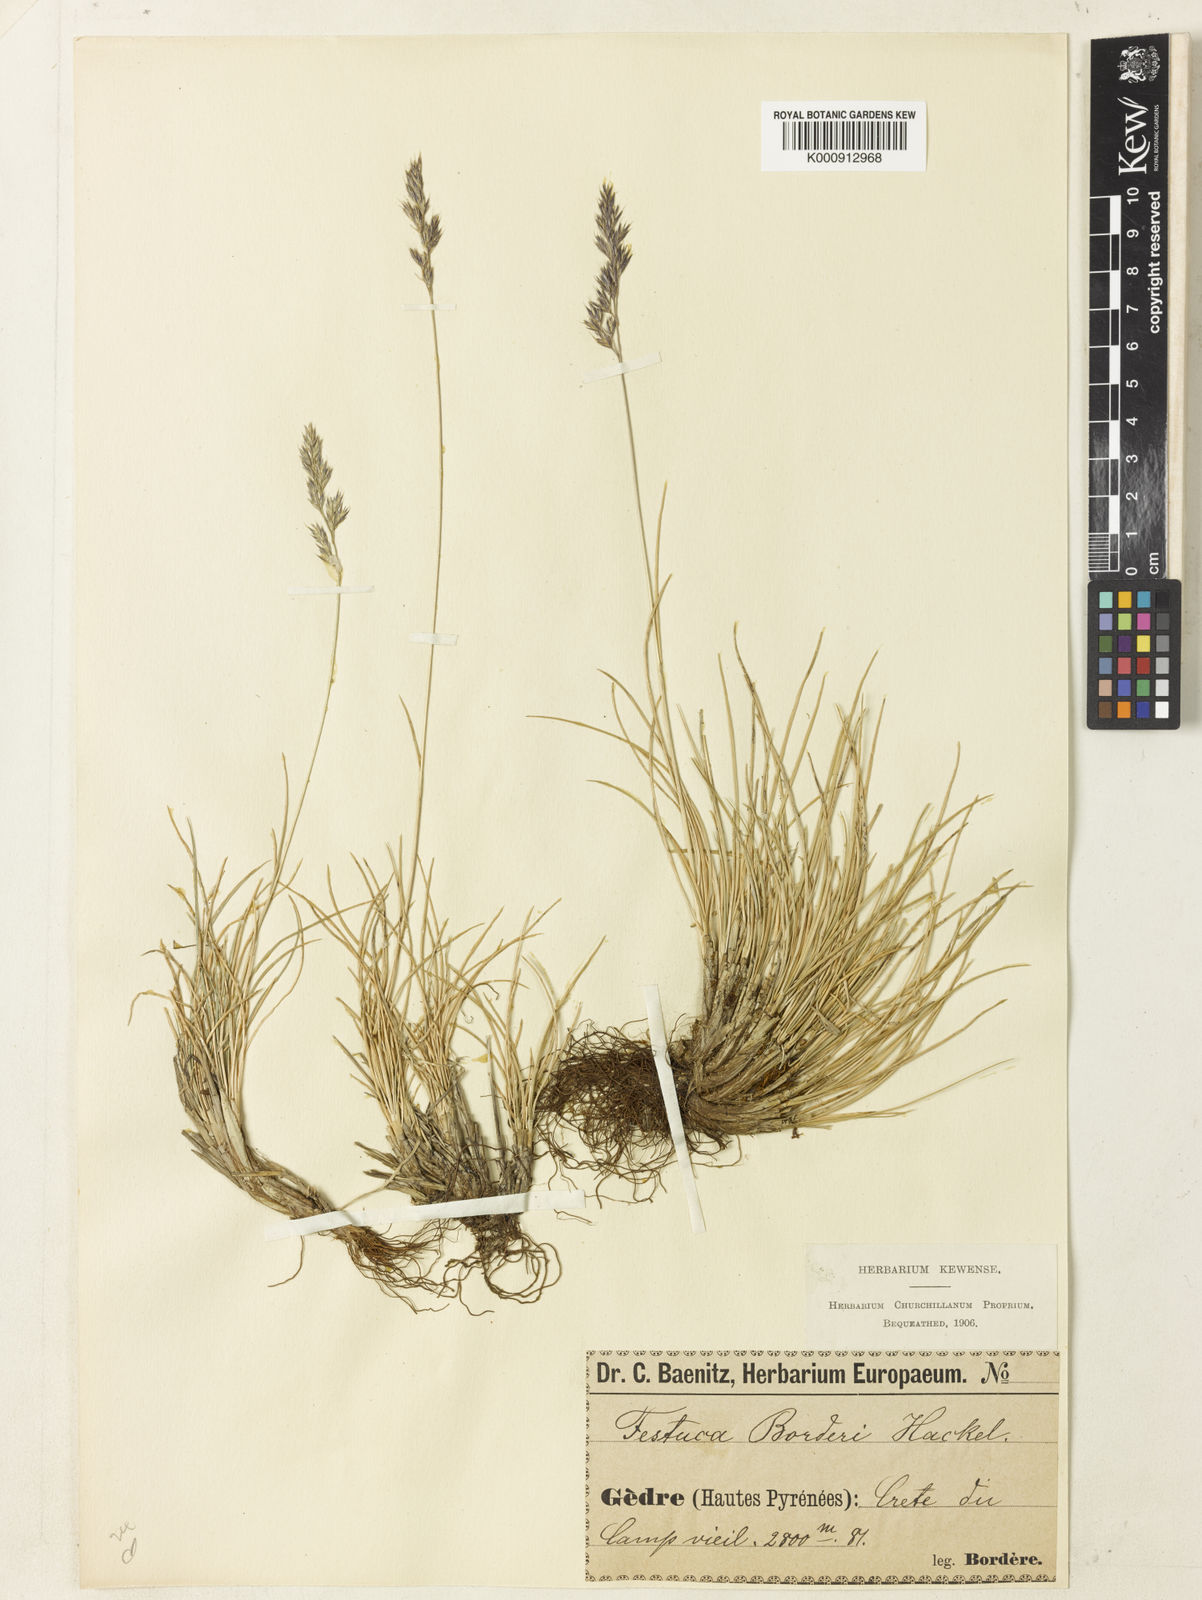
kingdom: Plantae
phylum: Tracheophyta
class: Liliopsida
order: Poales
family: Poaceae
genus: Festuca
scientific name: Festuca borderei
